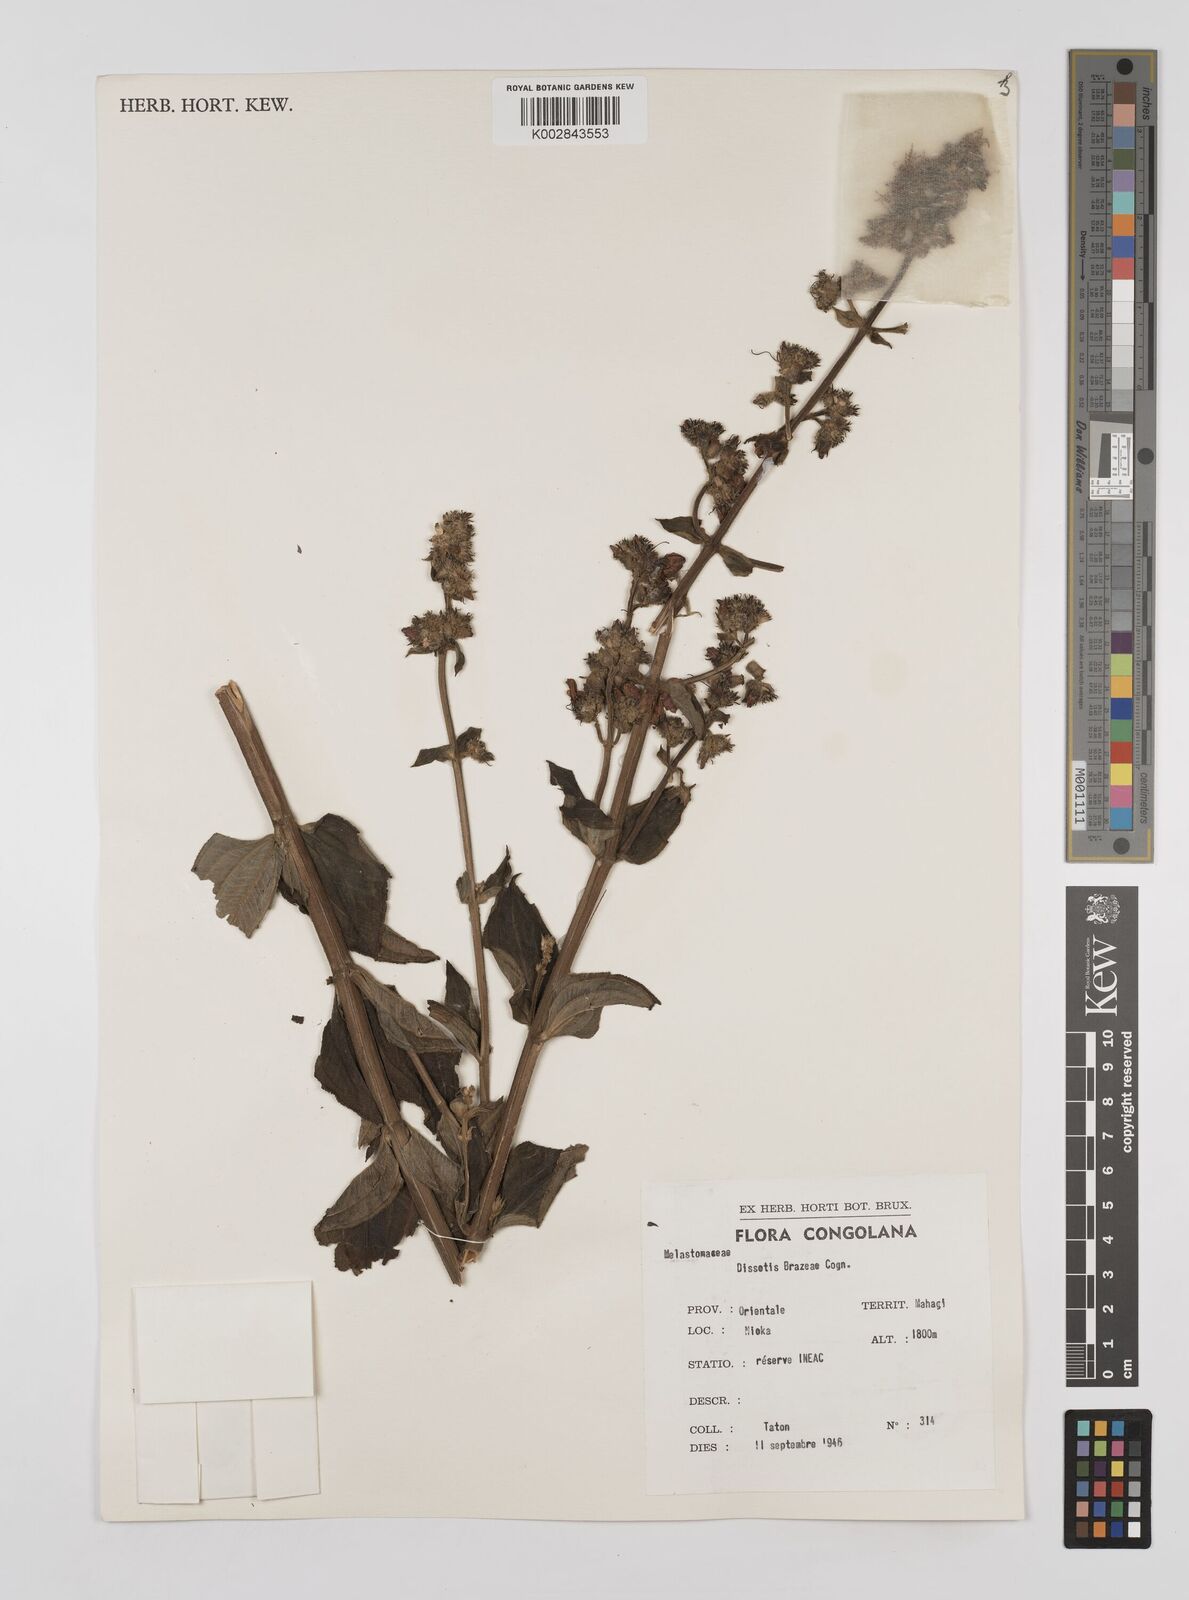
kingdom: Plantae
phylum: Tracheophyta
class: Magnoliopsida
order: Myrtales
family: Melastomataceae
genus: Dupineta
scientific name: Dupineta brazzae
